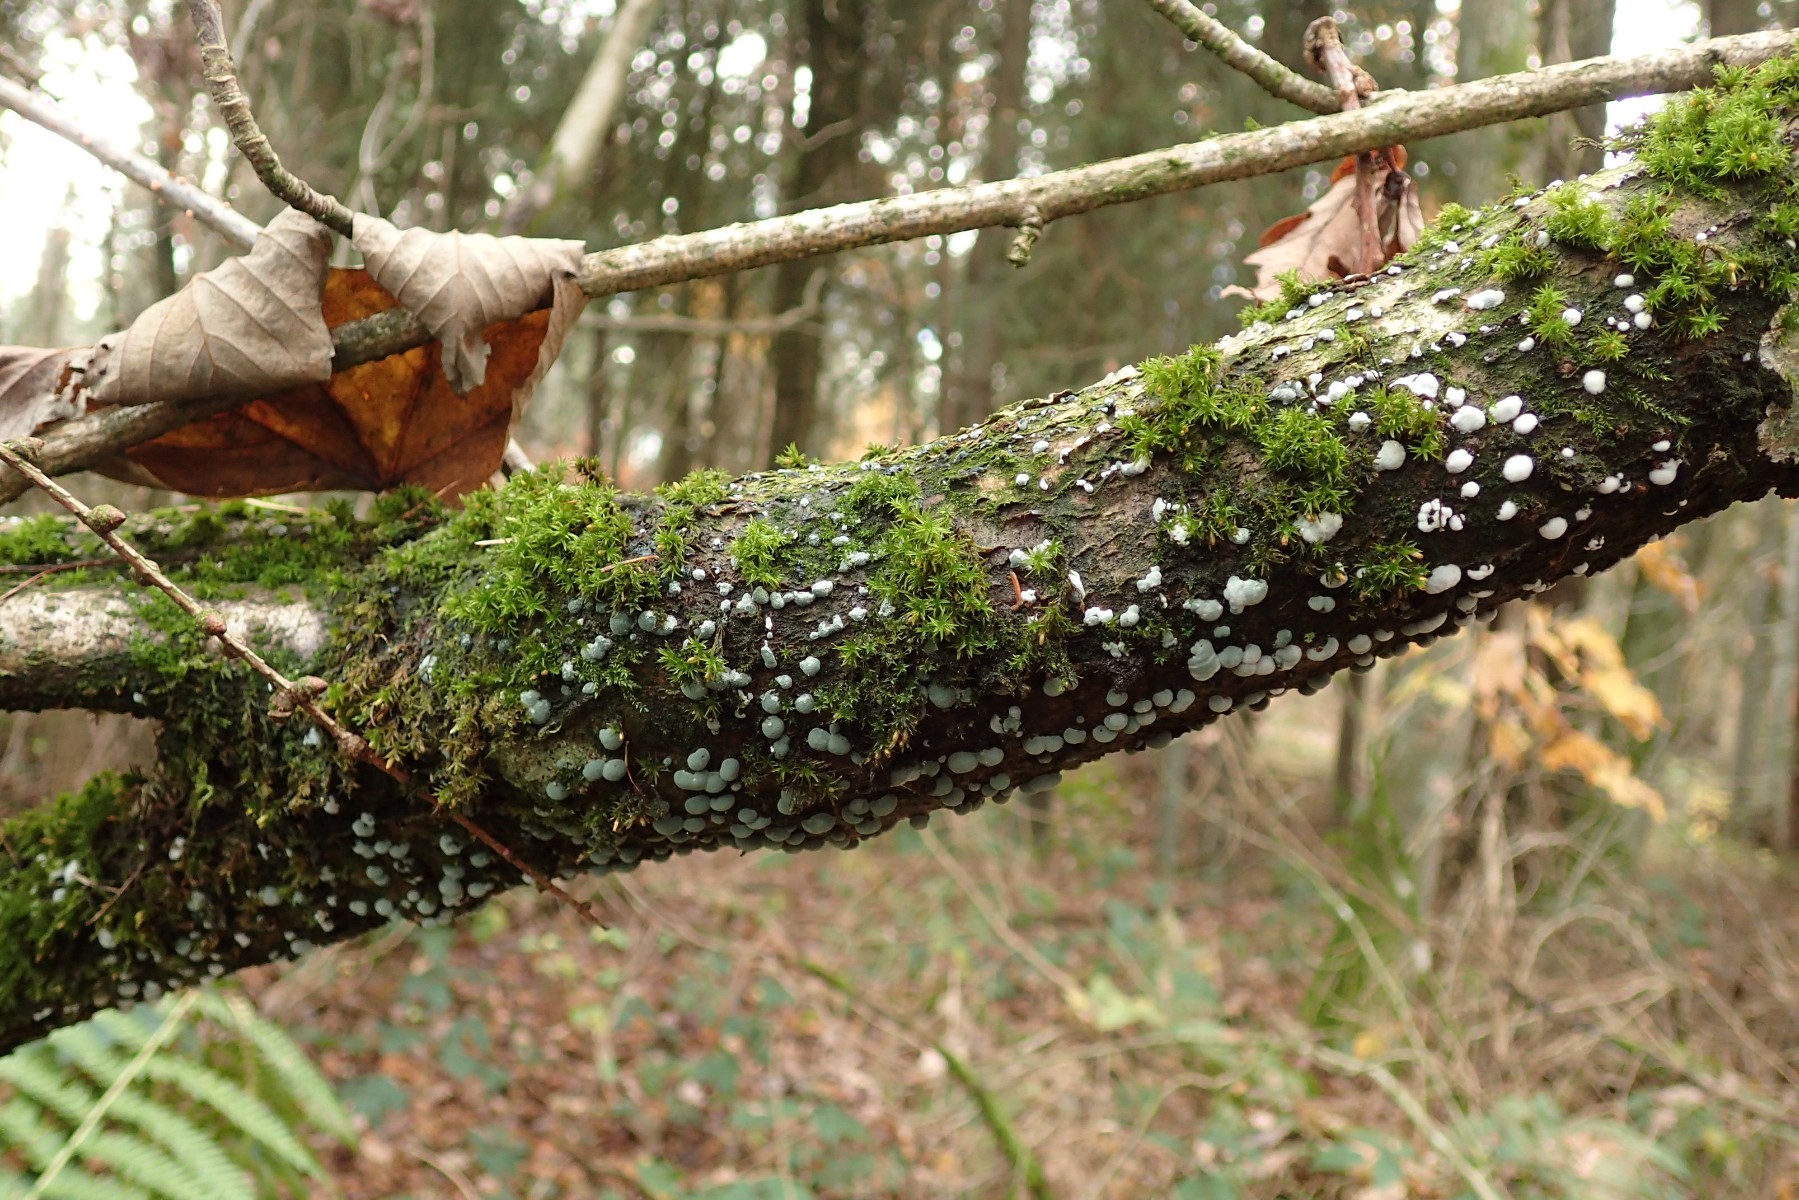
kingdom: Fungi
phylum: Ascomycota
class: Sordariomycetes
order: Hypocreales
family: Hypocreaceae
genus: Trichoderma
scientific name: Trichoderma
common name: kødkerne
